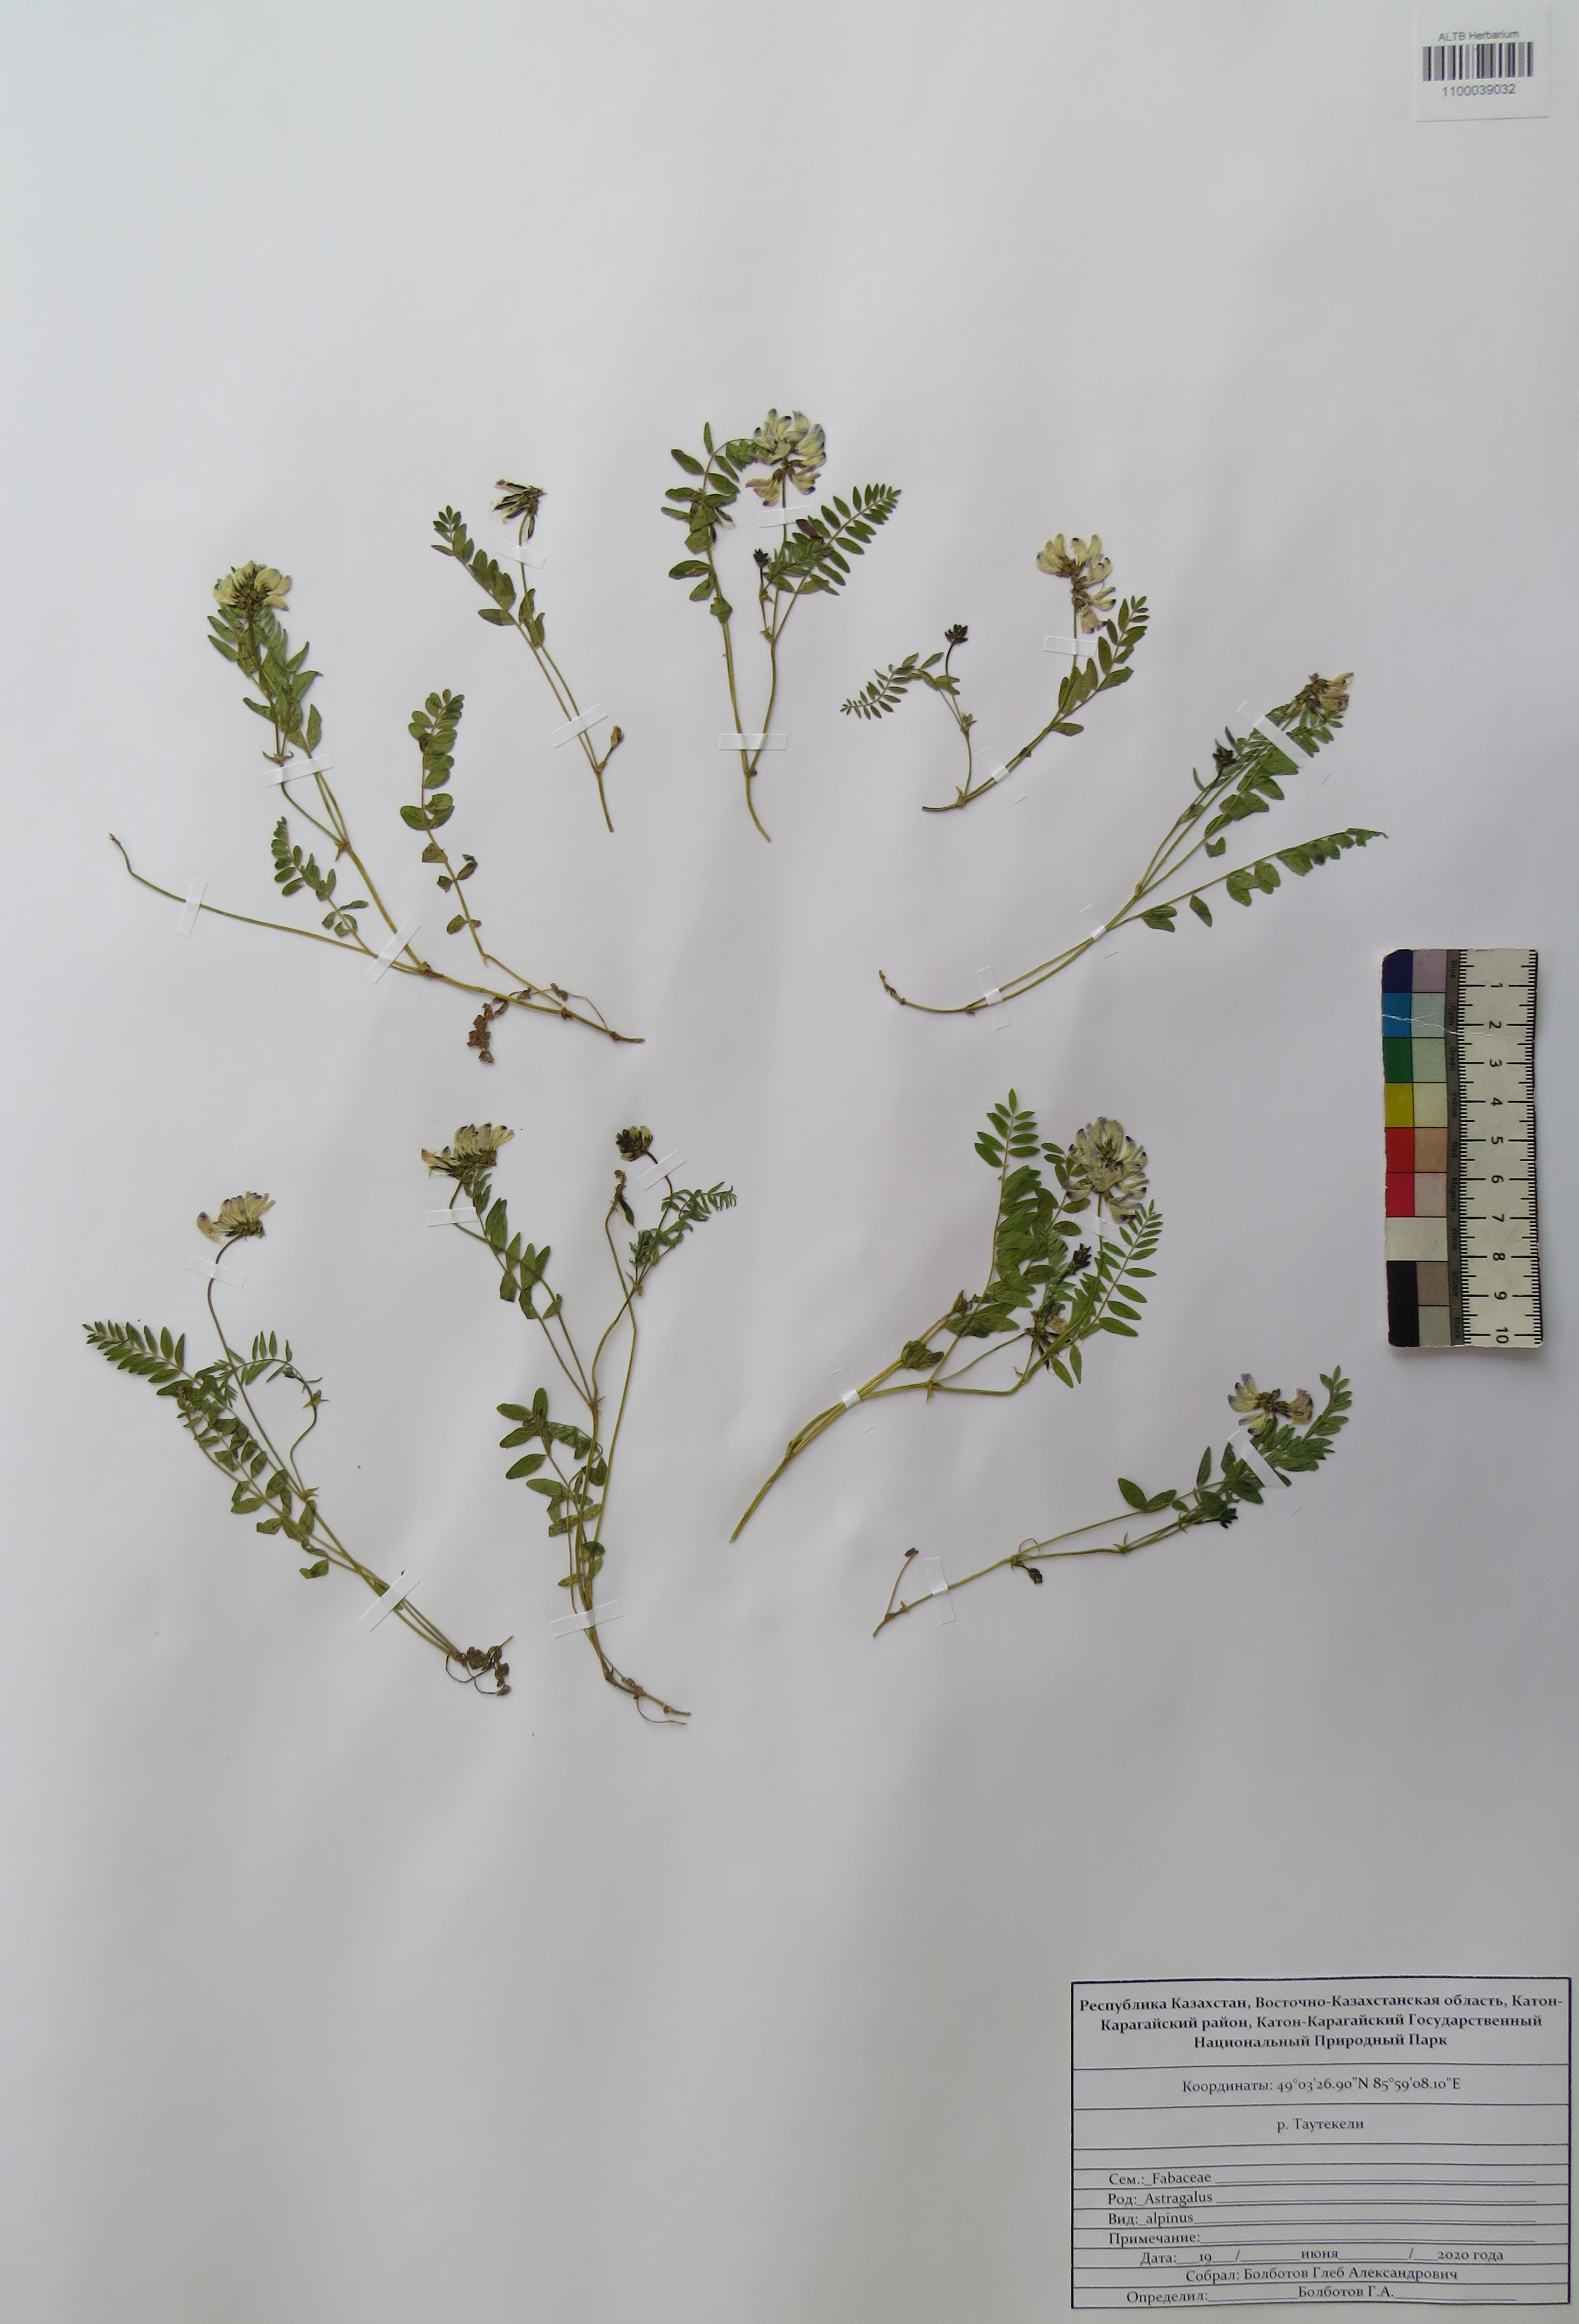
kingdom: Plantae
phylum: Tracheophyta
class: Magnoliopsida
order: Fabales
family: Fabaceae
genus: Astragalus
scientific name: Astragalus alpinus
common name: Alpine milk-vetch
